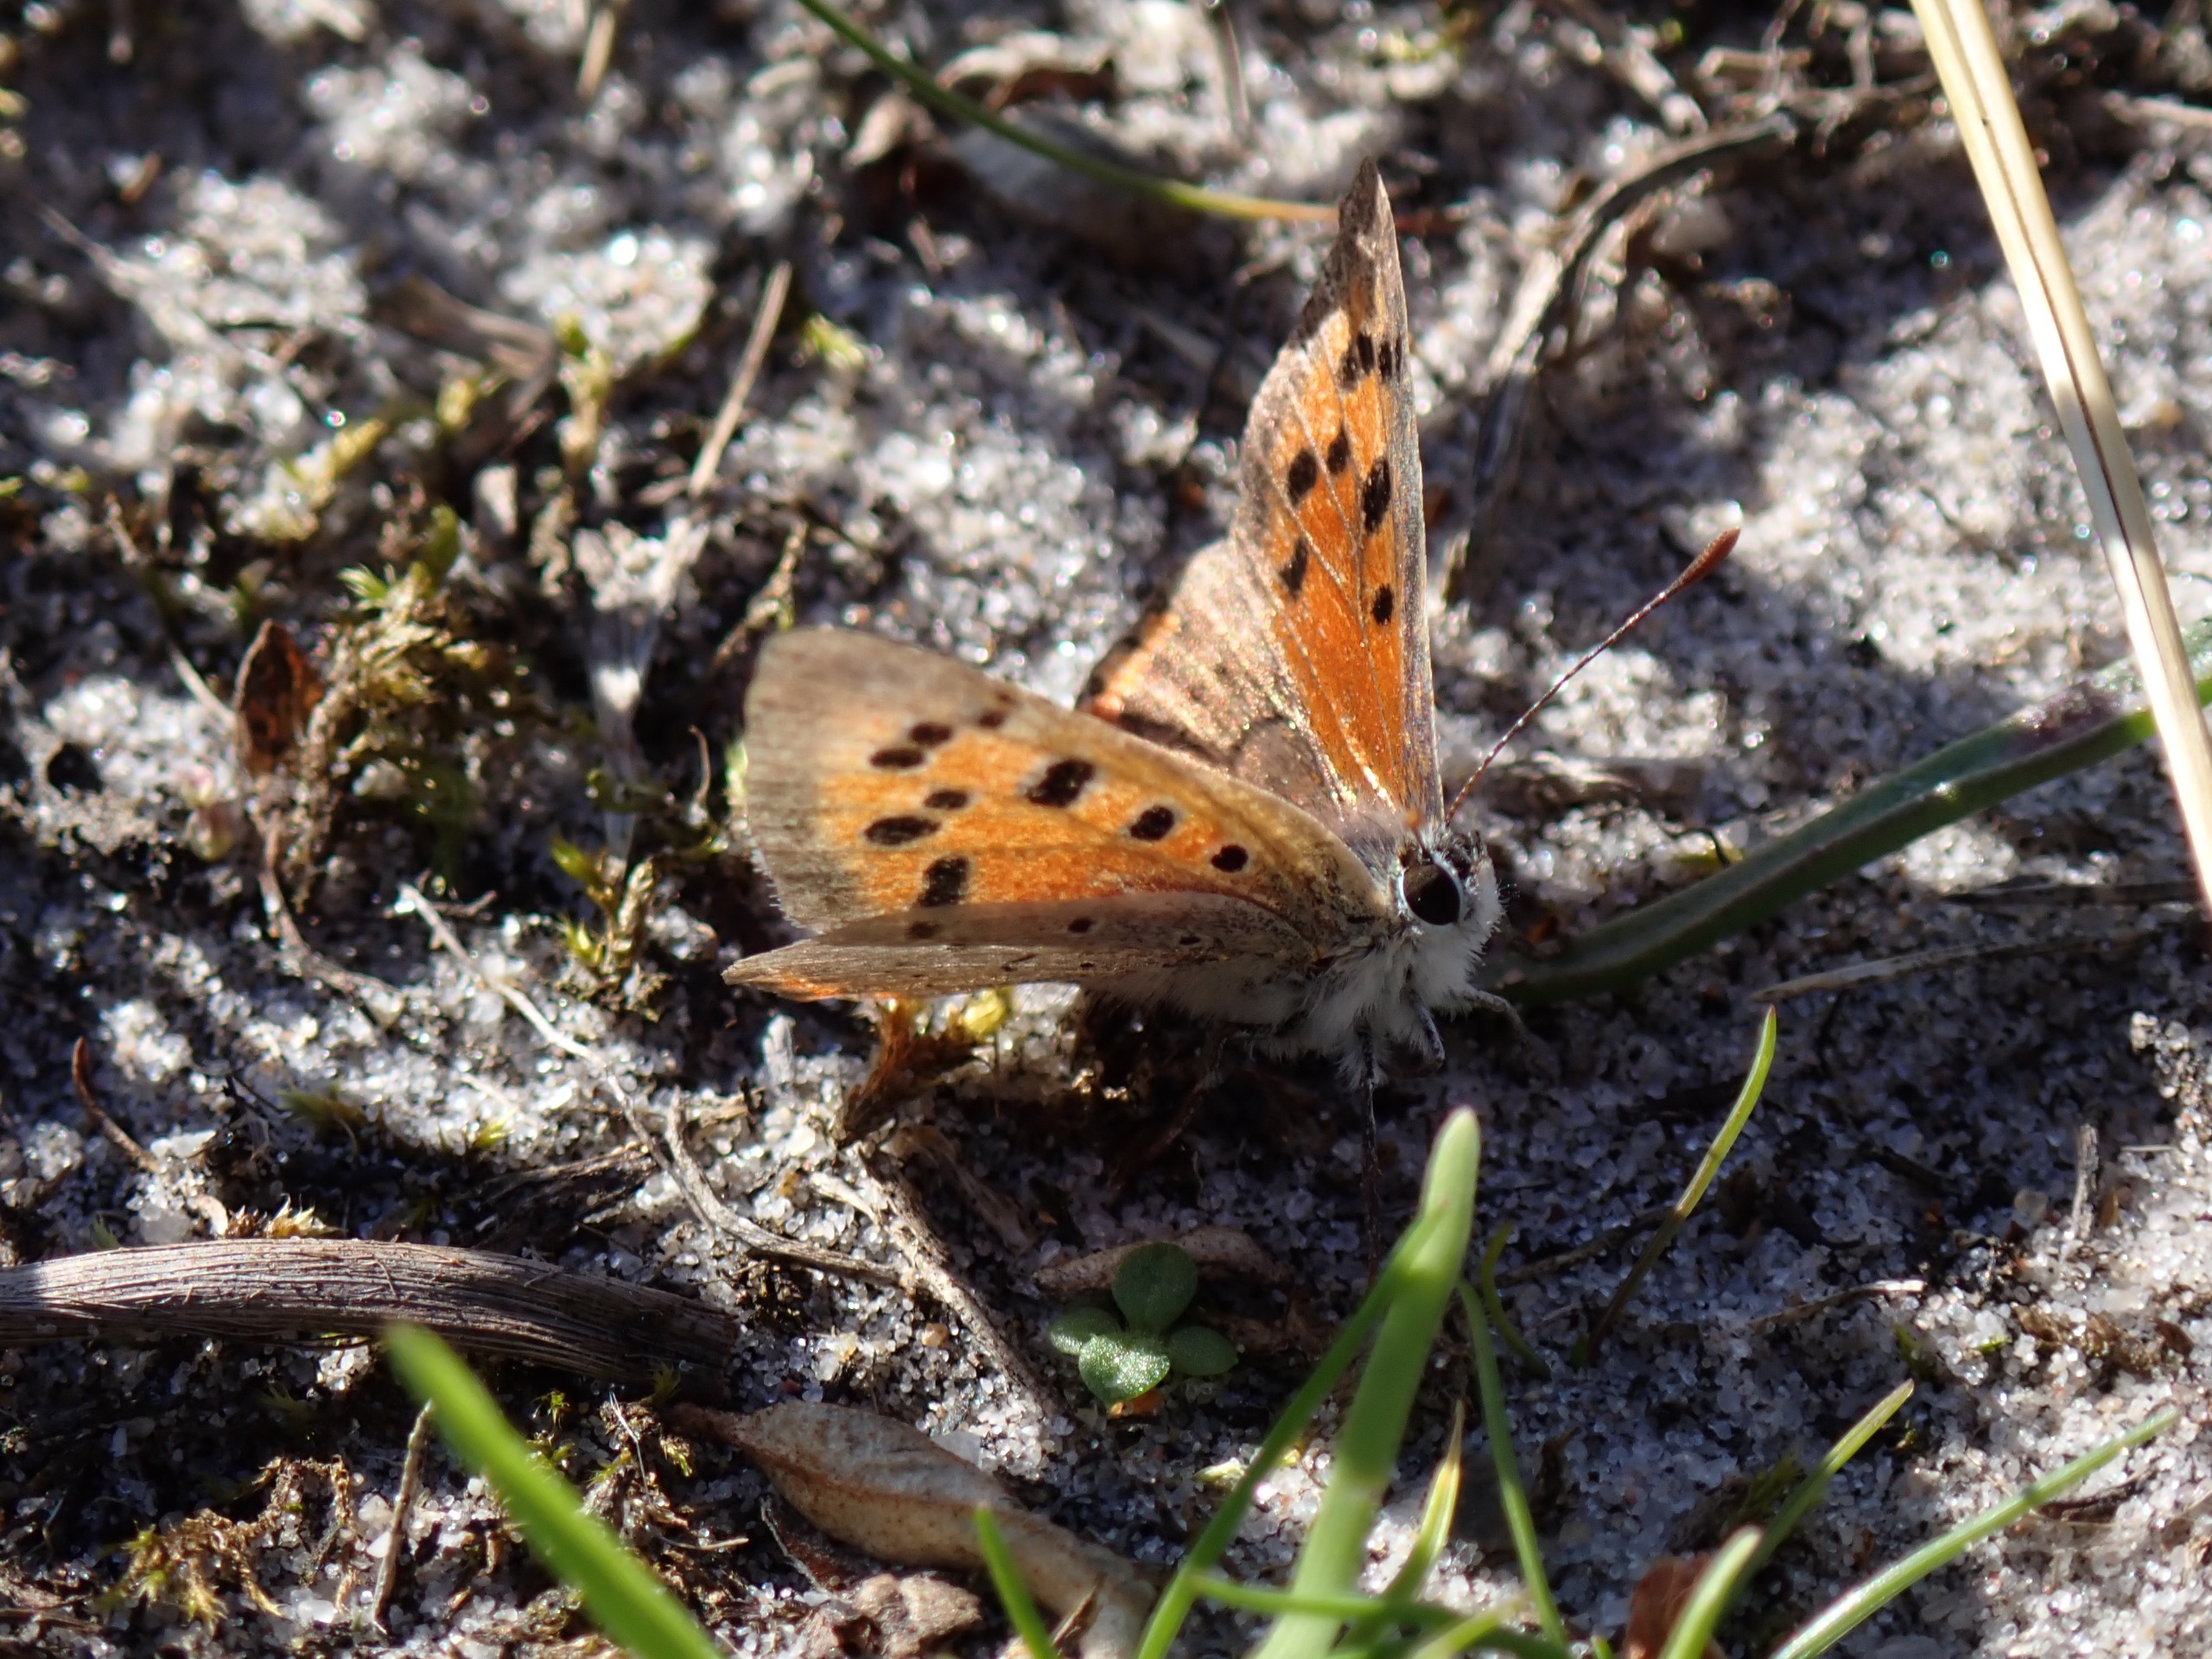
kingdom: Animalia
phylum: Arthropoda
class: Insecta
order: Lepidoptera
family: Lycaenidae
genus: Lycaena
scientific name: Lycaena phlaeas
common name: Lille ildfugl
